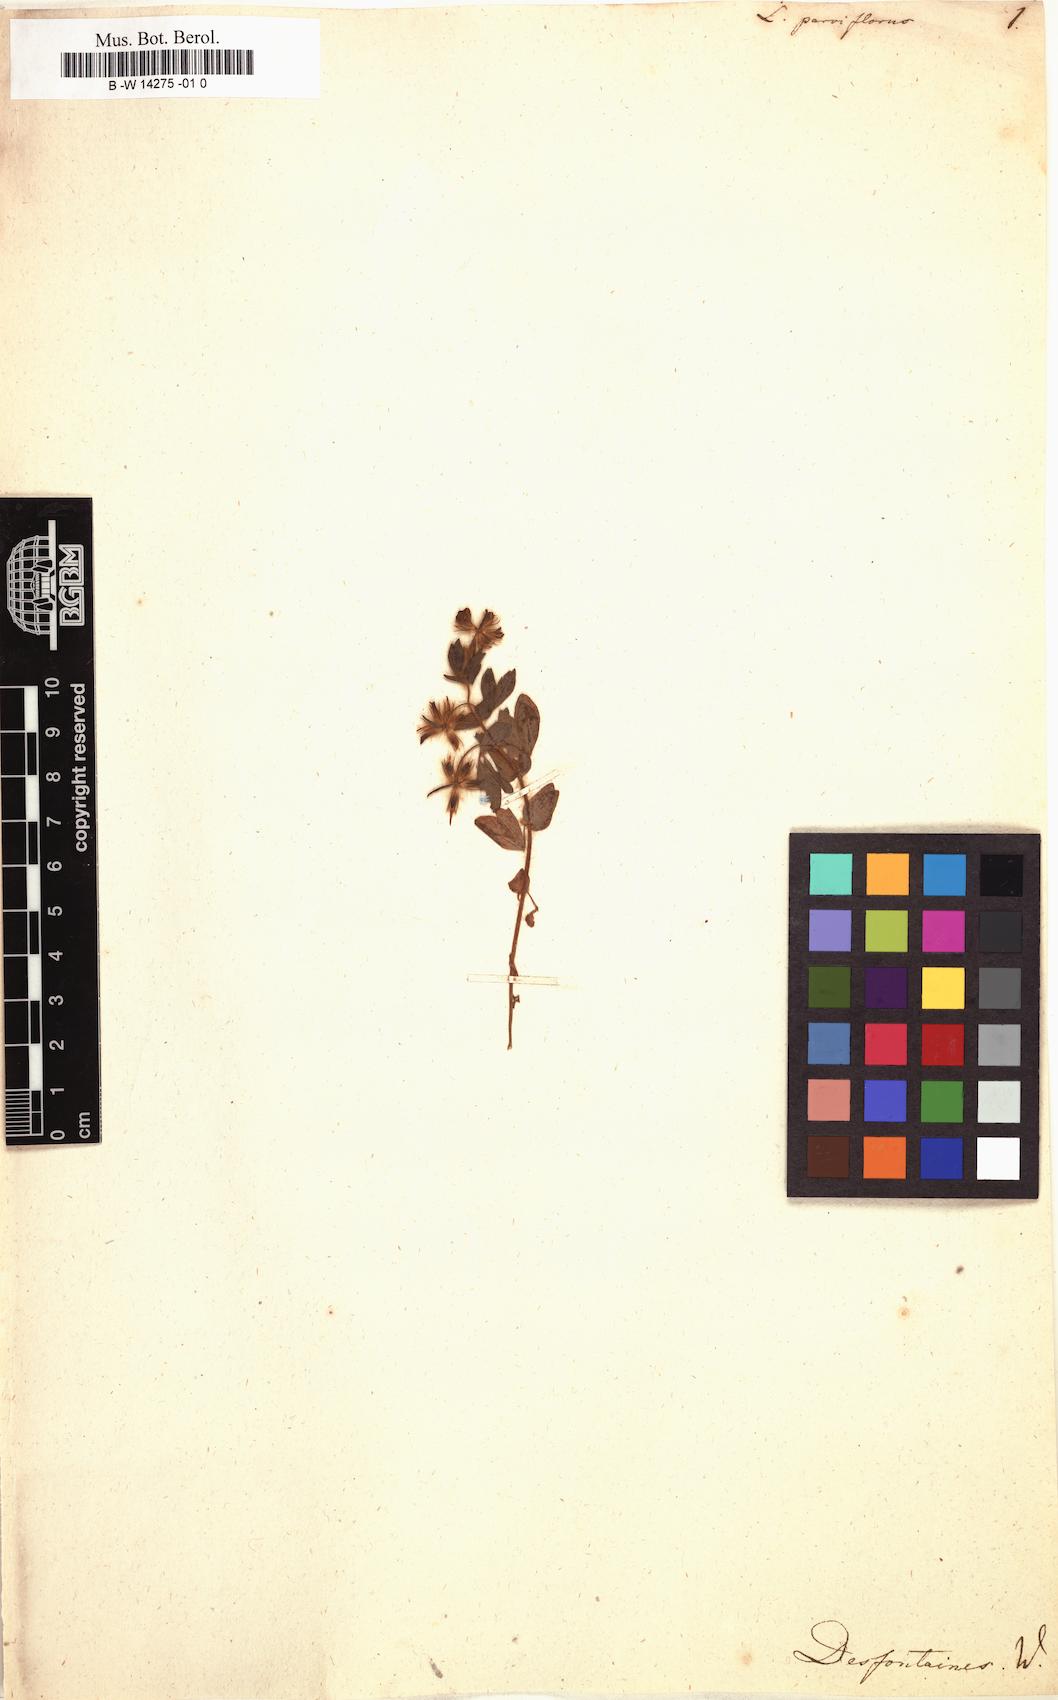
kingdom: Plantae
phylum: Tracheophyta
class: Magnoliopsida
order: Fabales
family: Fabaceae
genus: Lotus
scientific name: Lotus parviflorus
